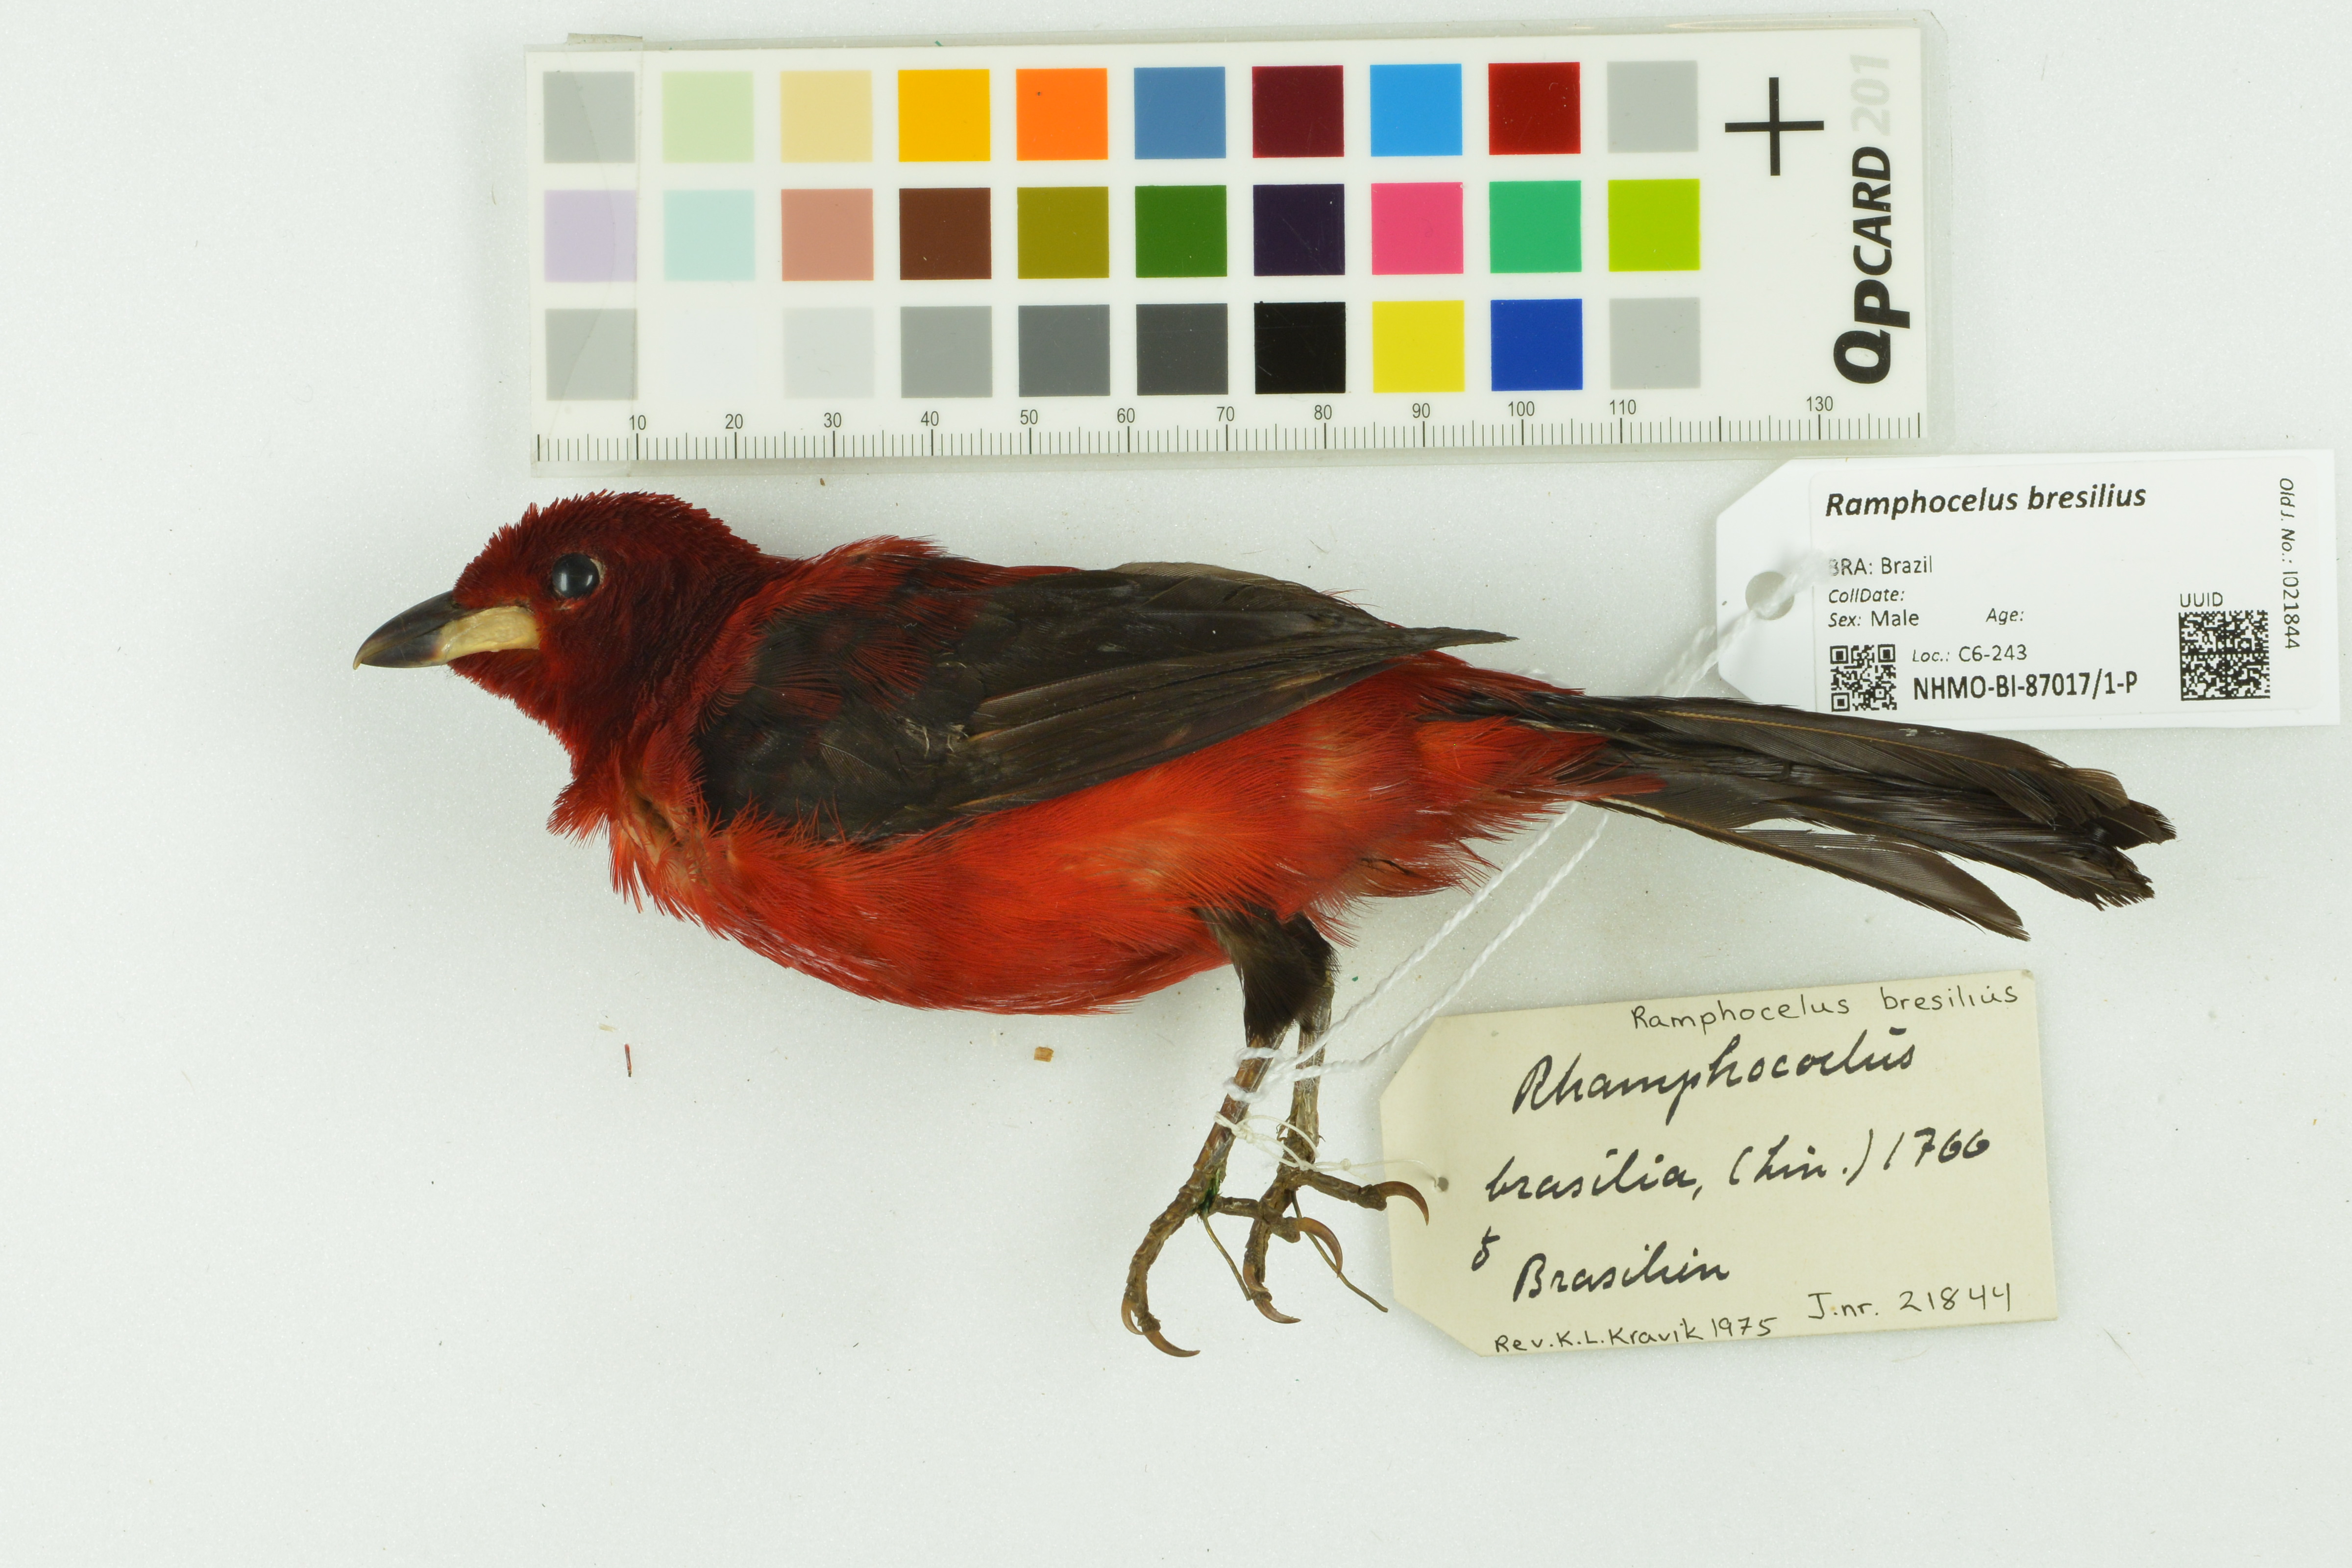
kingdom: Animalia
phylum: Chordata
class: Aves
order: Passeriformes
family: Thraupidae
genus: Ramphocelus
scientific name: Ramphocelus bresilia
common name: Brazilian tanager
